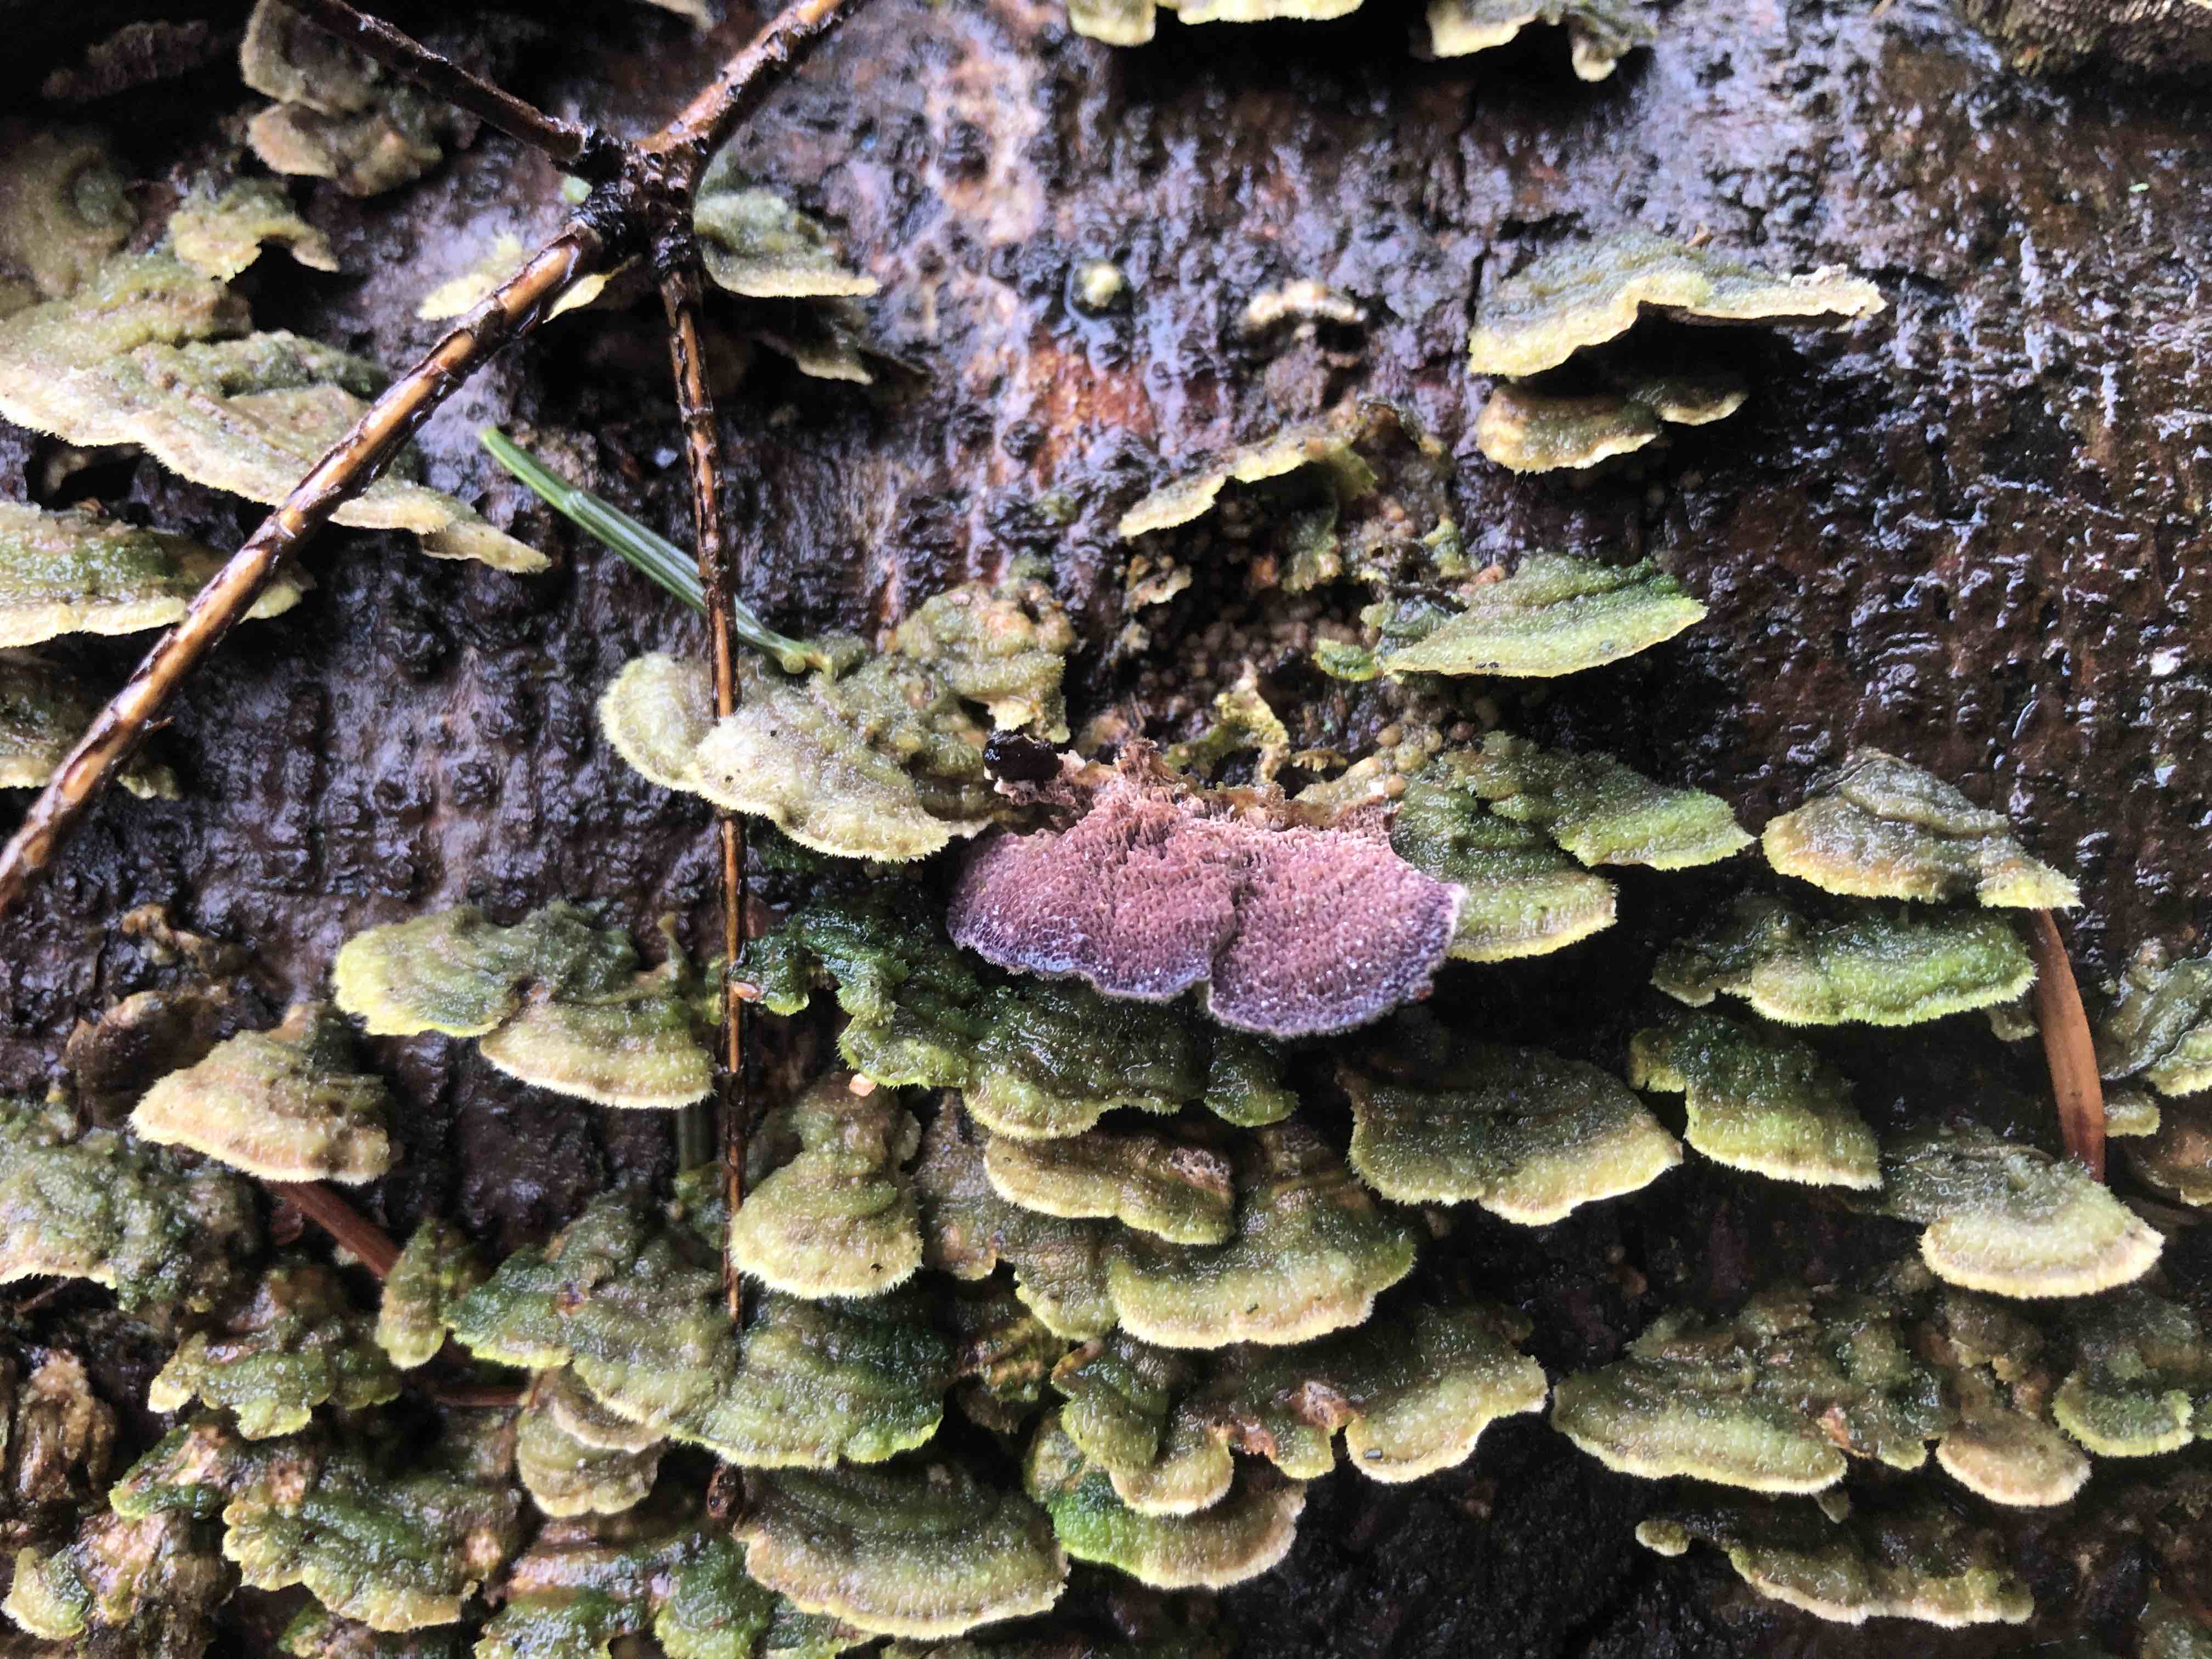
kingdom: Fungi
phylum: Basidiomycota
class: Agaricomycetes
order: Hymenochaetales
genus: Trichaptum
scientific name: Trichaptum abietinum
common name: almindelig violporesvamp
